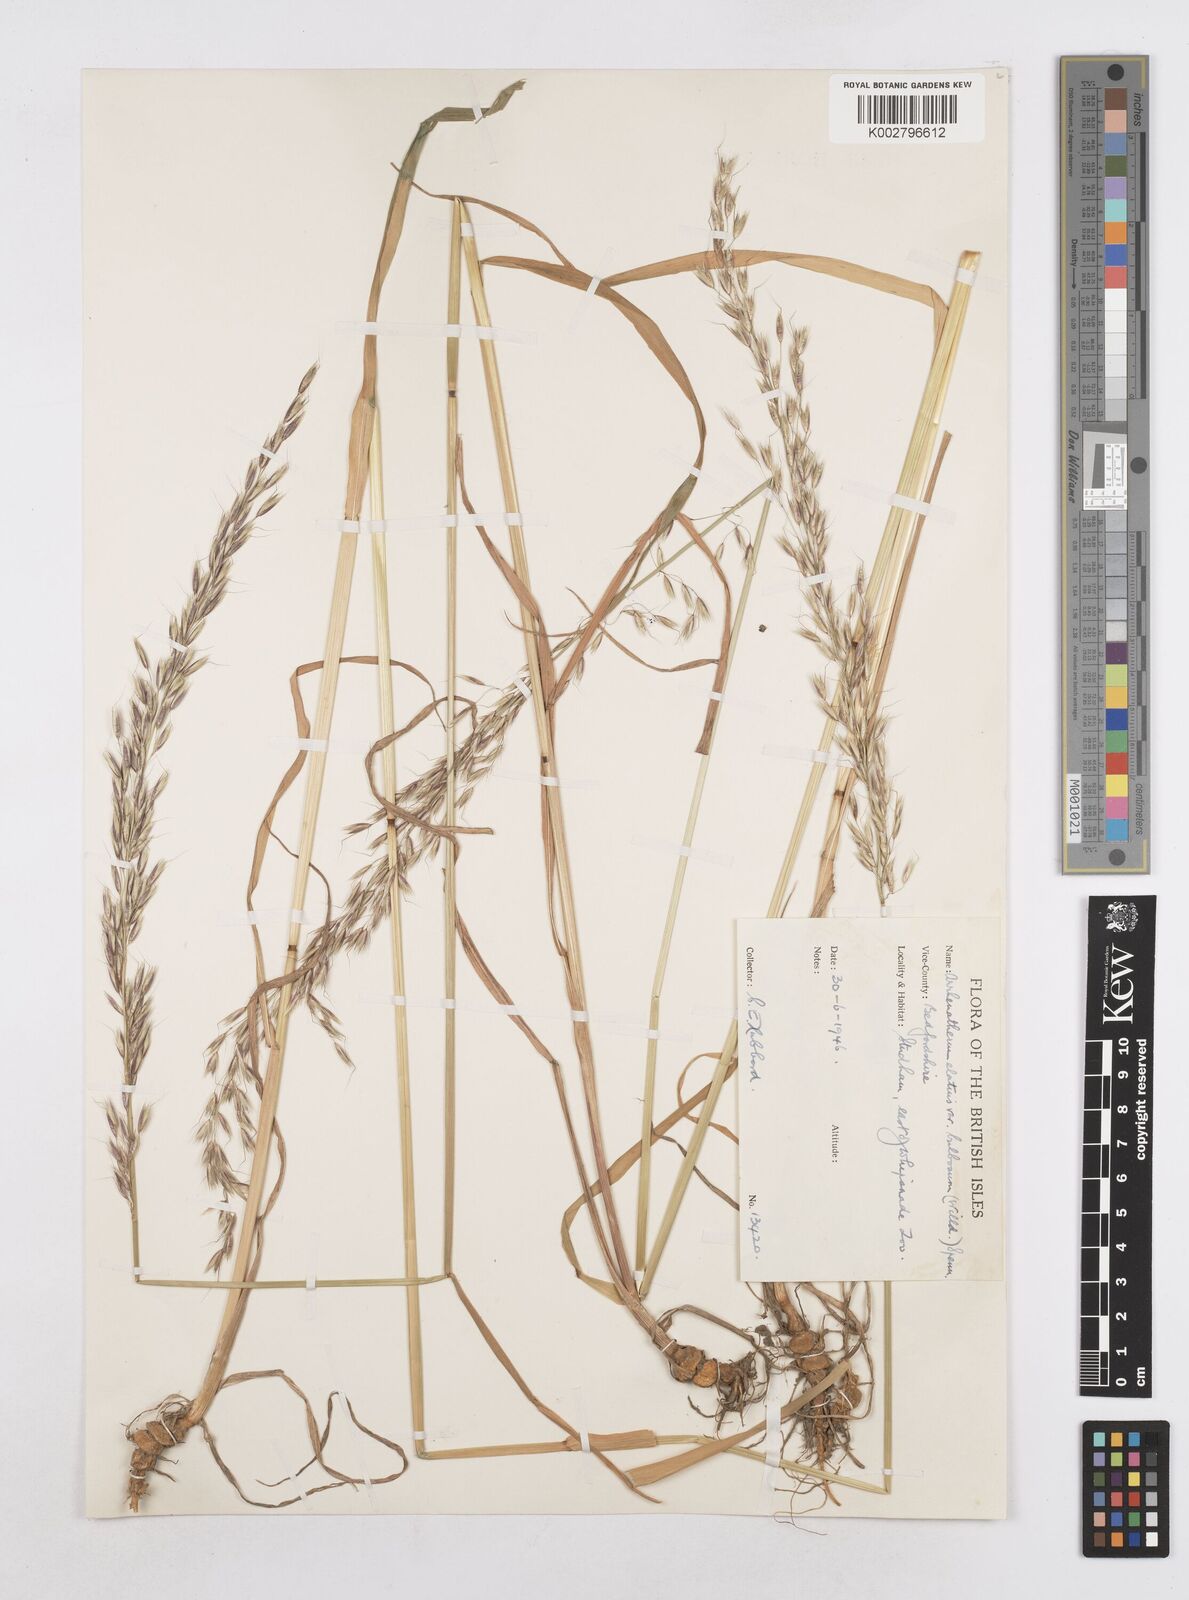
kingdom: Plantae
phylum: Tracheophyta
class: Liliopsida
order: Poales
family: Poaceae
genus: Arrhenatherum
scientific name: Arrhenatherum elatius
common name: Tall oatgrass
